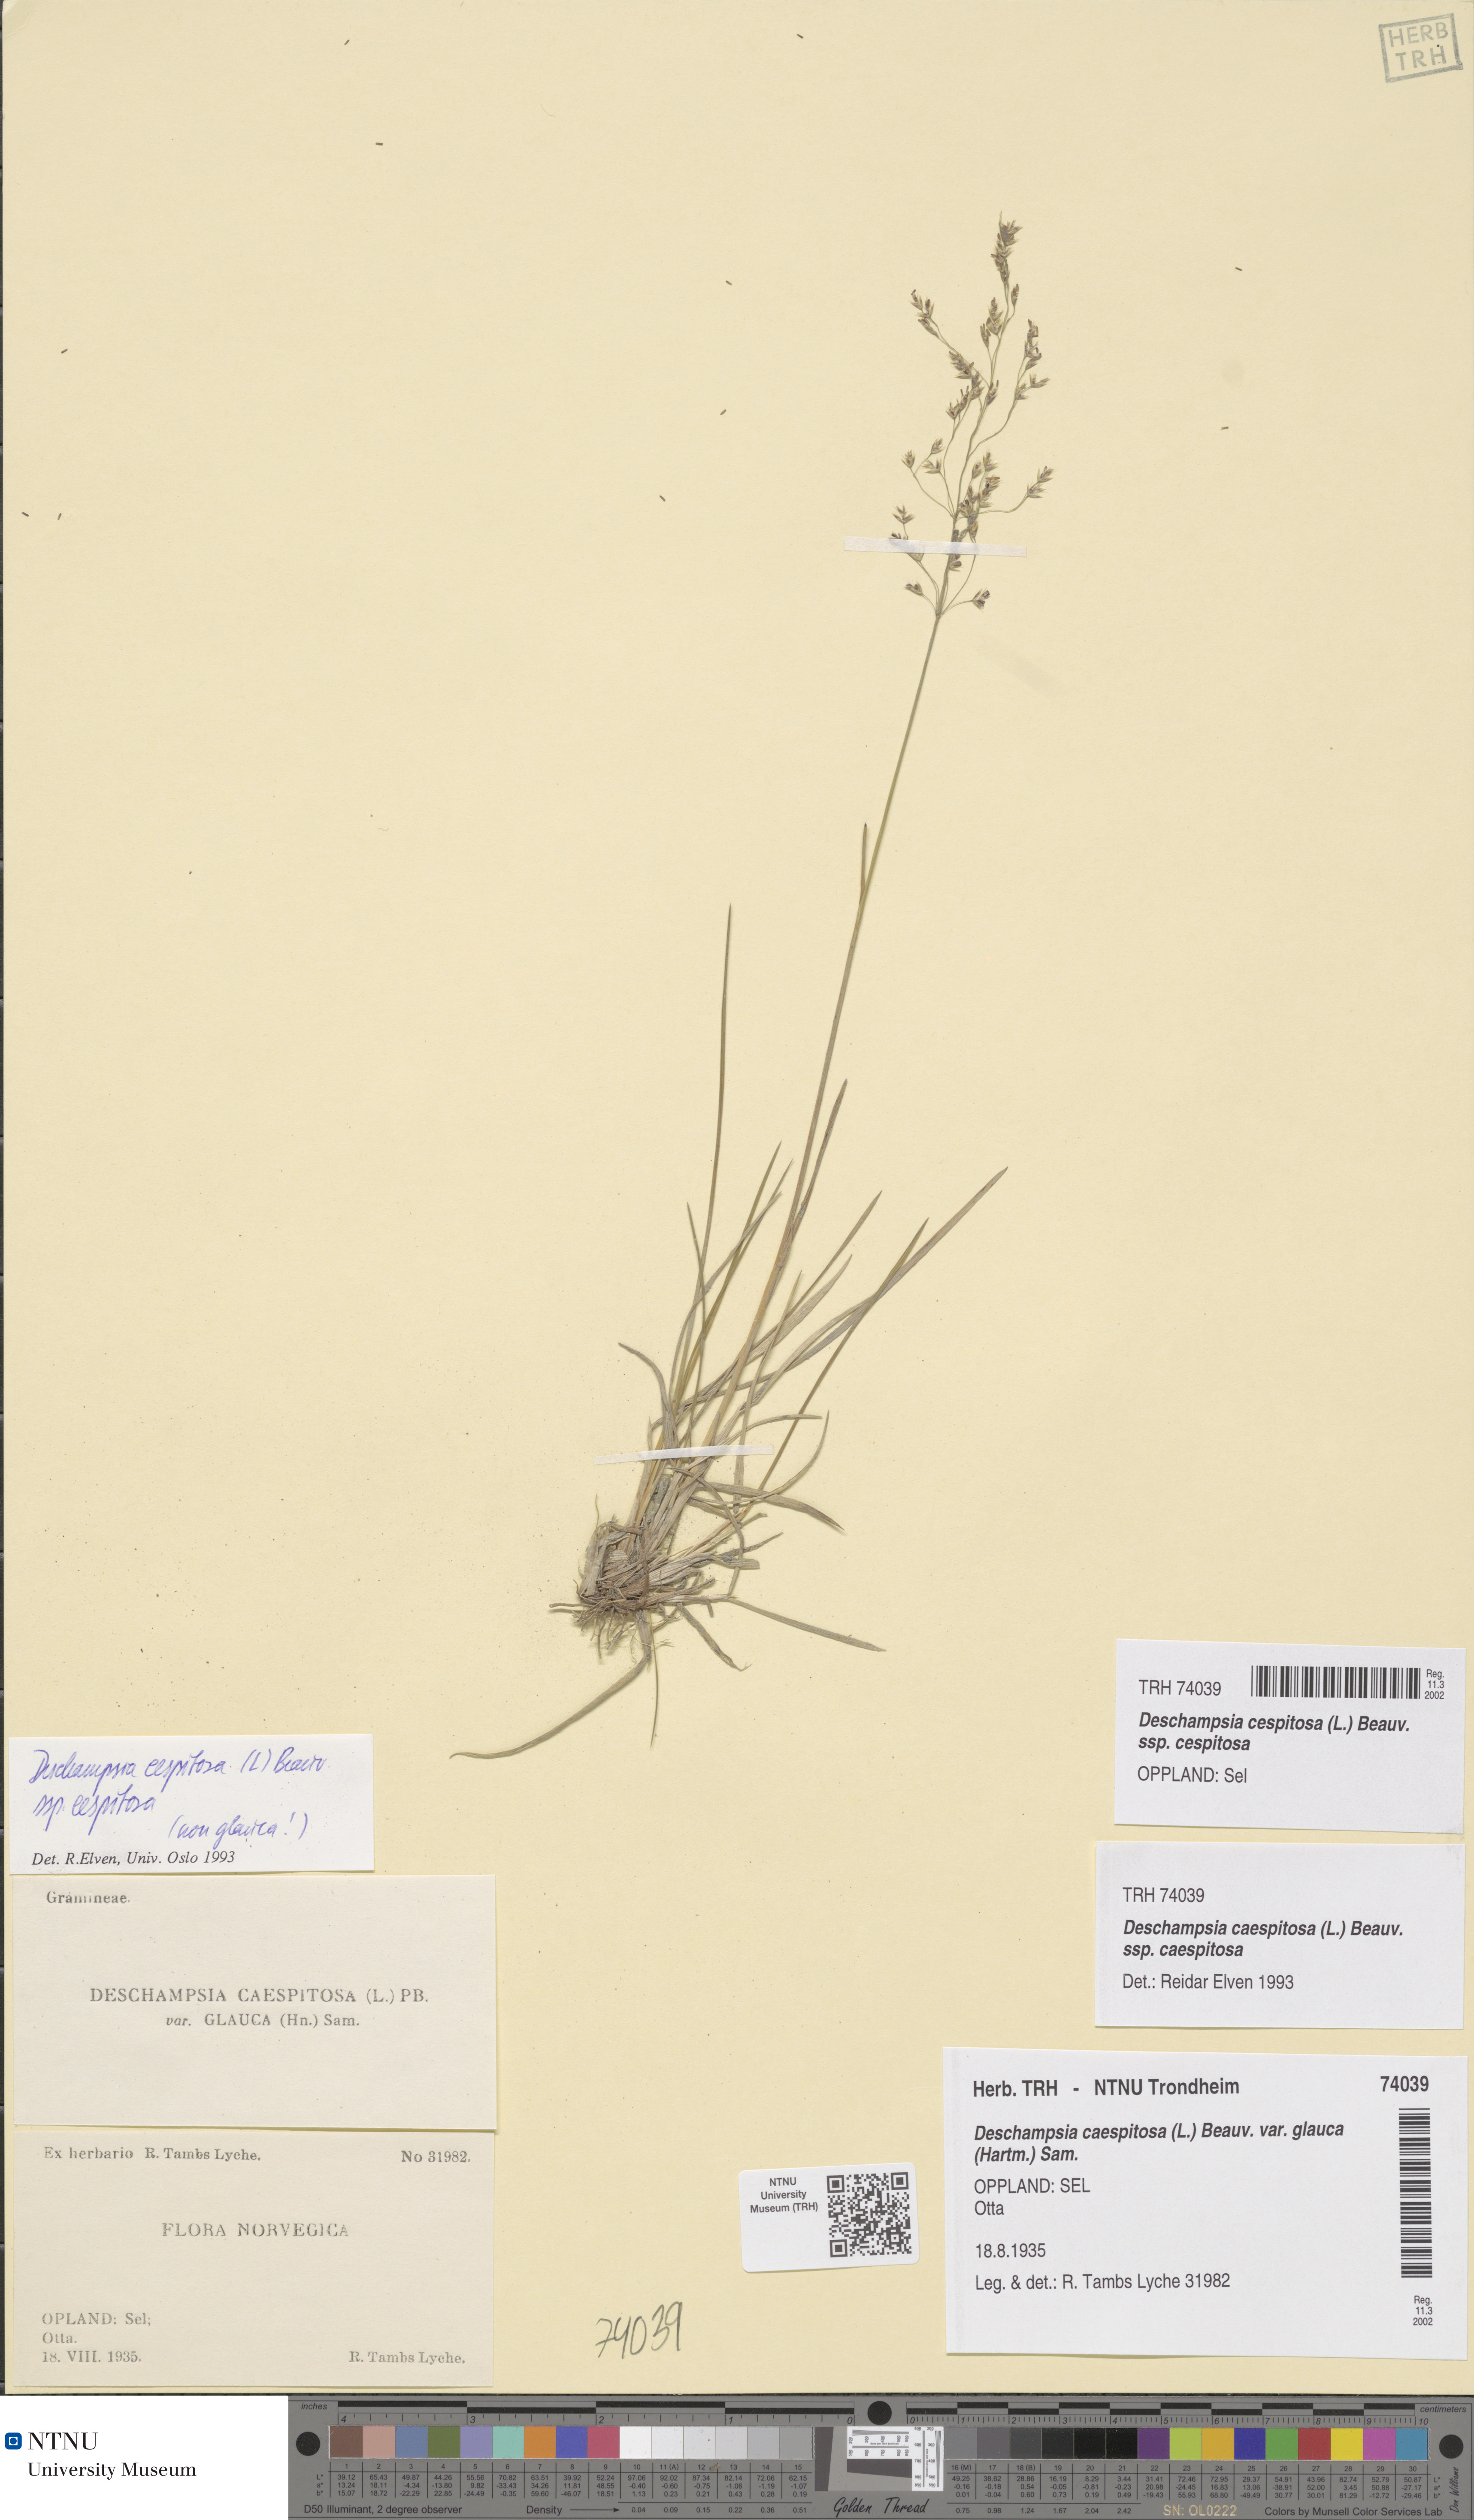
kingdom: Plantae
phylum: Tracheophyta
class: Liliopsida
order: Poales
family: Poaceae
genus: Deschampsia
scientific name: Deschampsia cespitosa
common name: Tufted hair-grass
